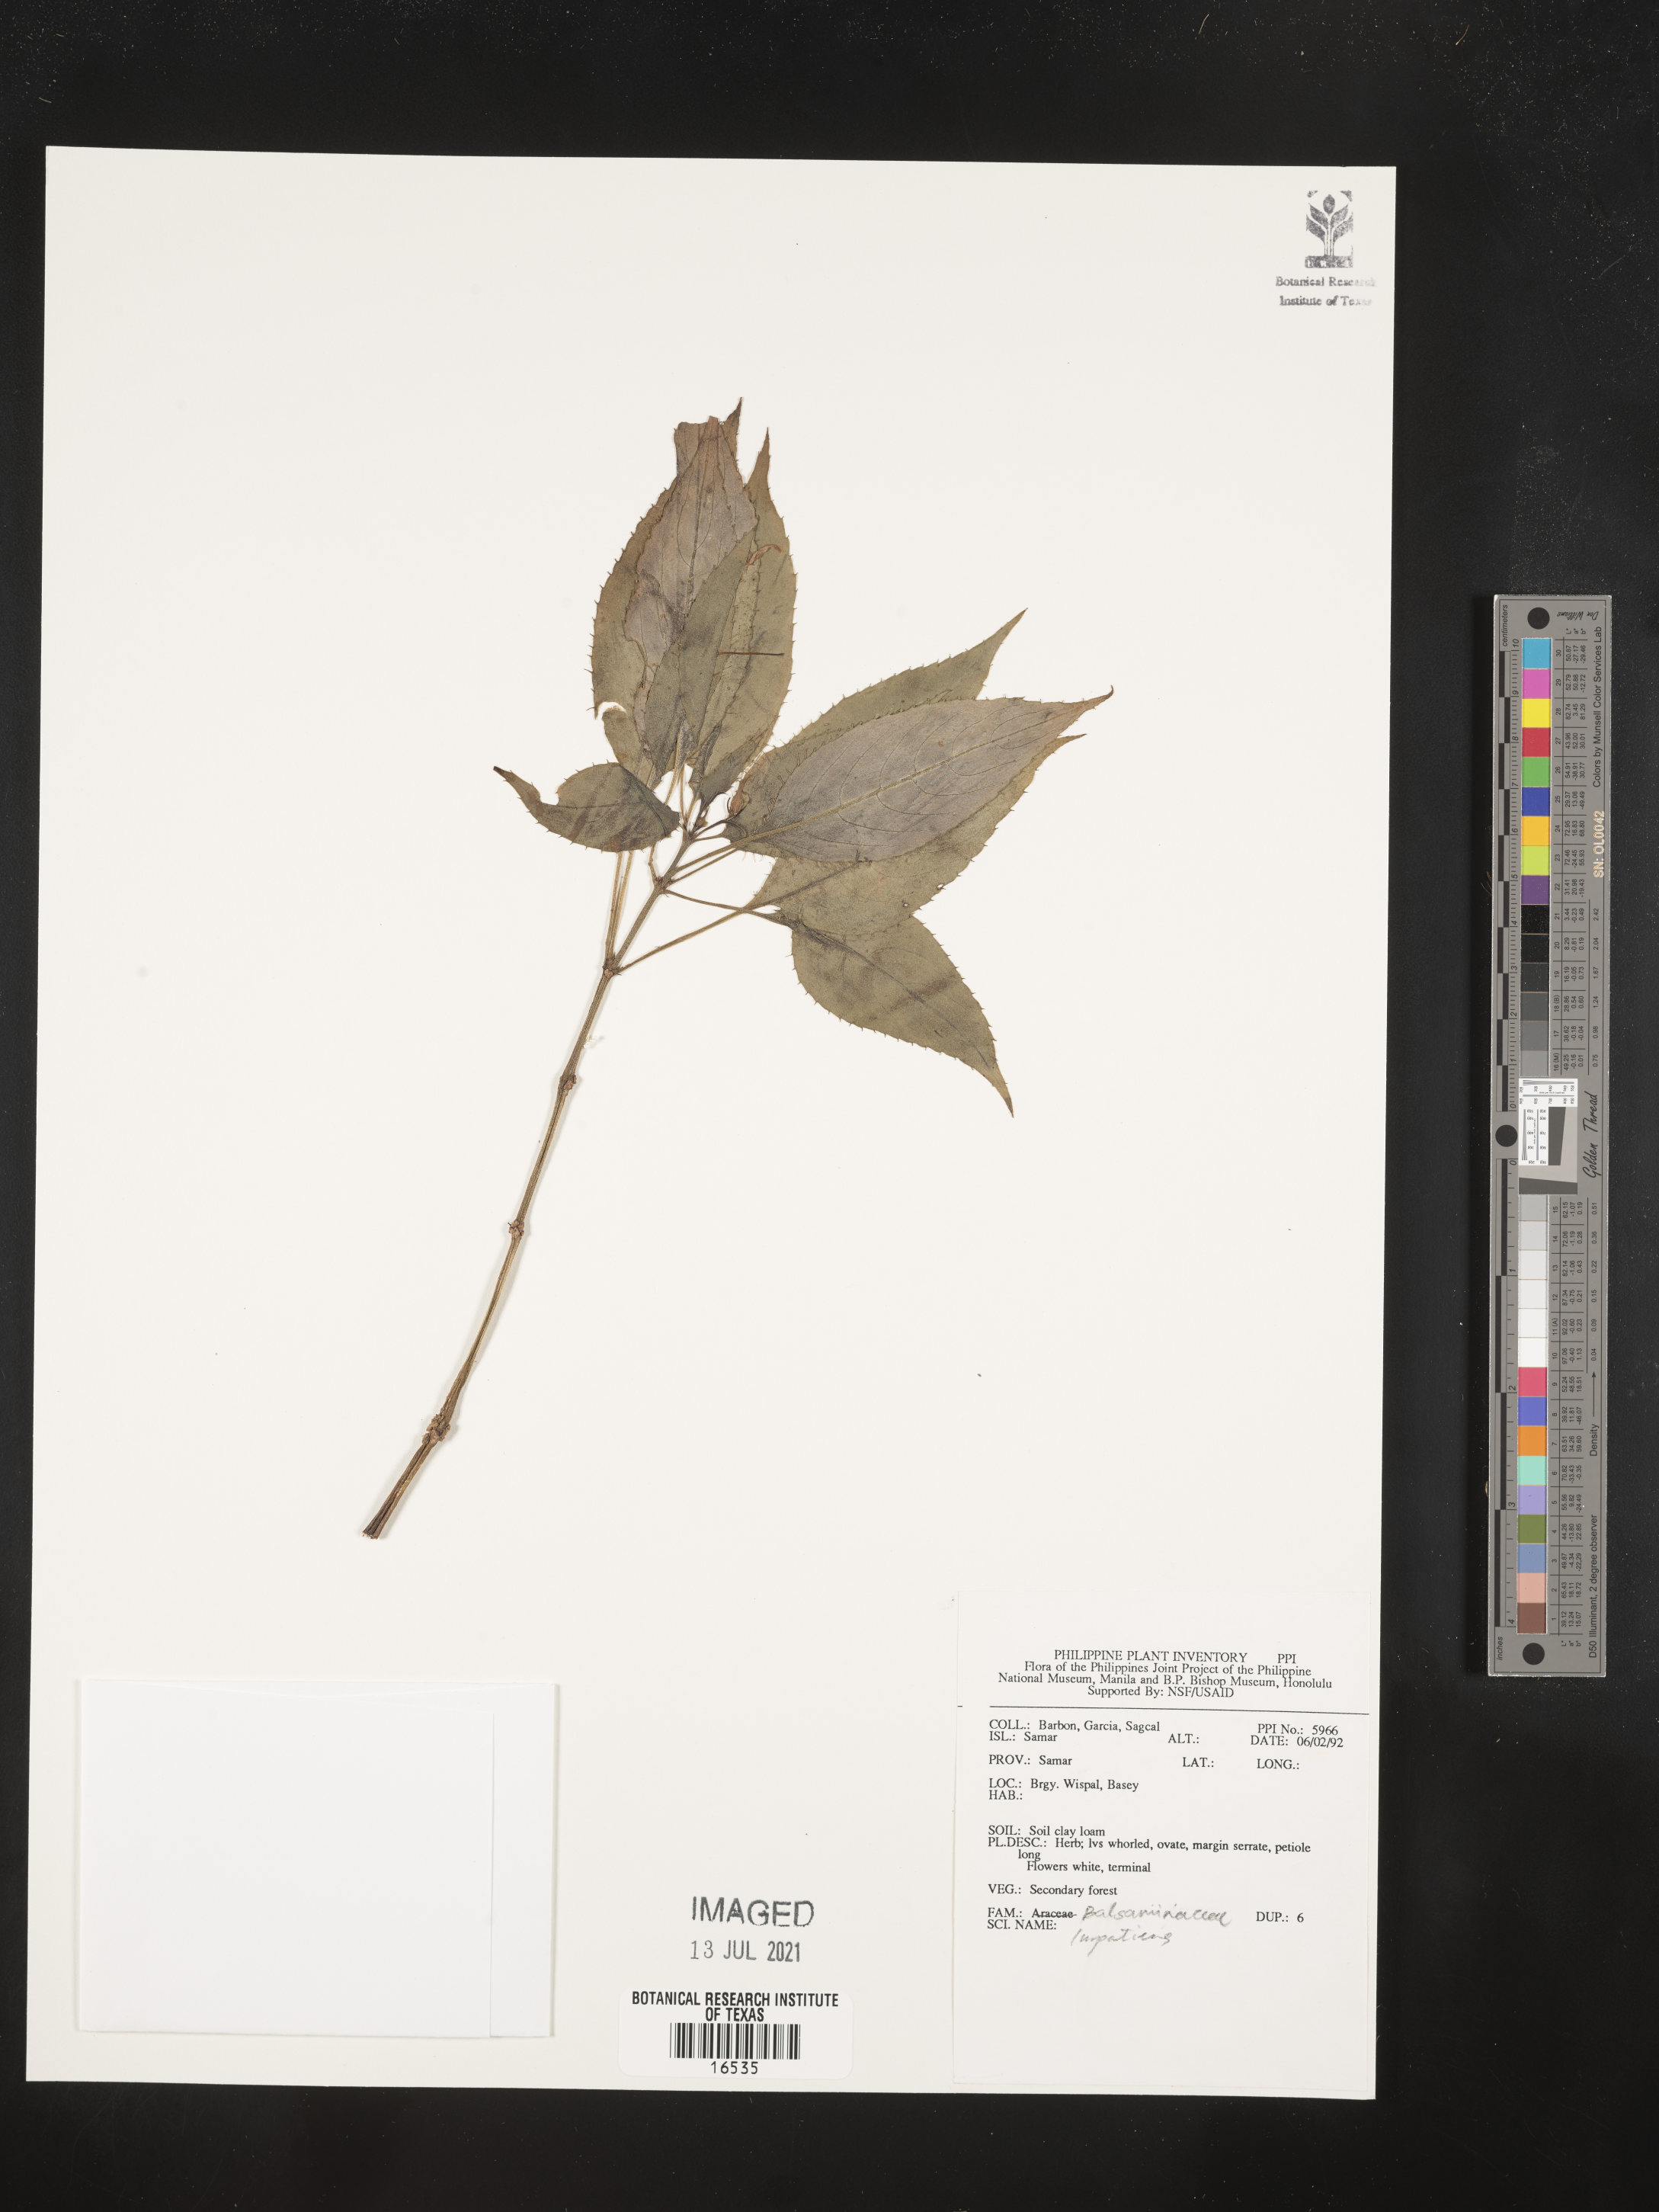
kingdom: Plantae
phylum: Tracheophyta
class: Magnoliopsida
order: Ericales
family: Balsaminaceae
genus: Impatiens
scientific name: Impatiens
